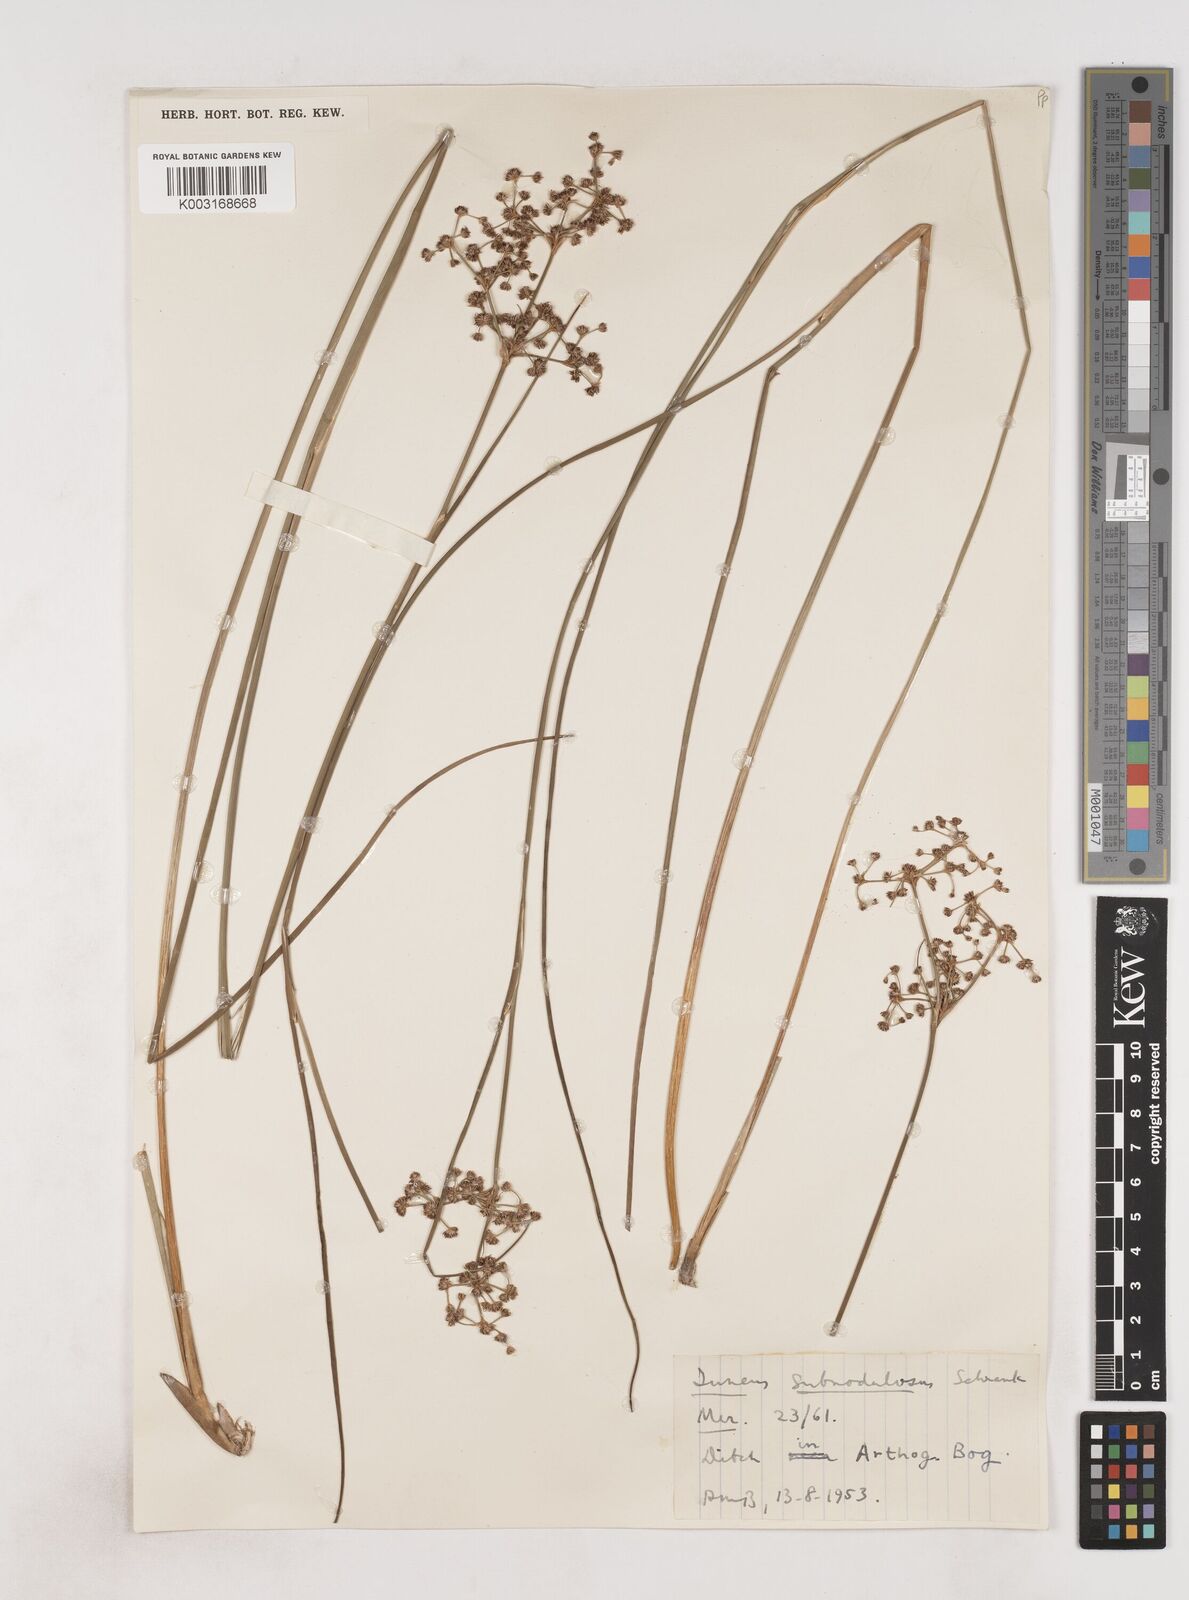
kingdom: Plantae
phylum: Tracheophyta
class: Liliopsida
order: Poales
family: Juncaceae
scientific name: Juncaceae
